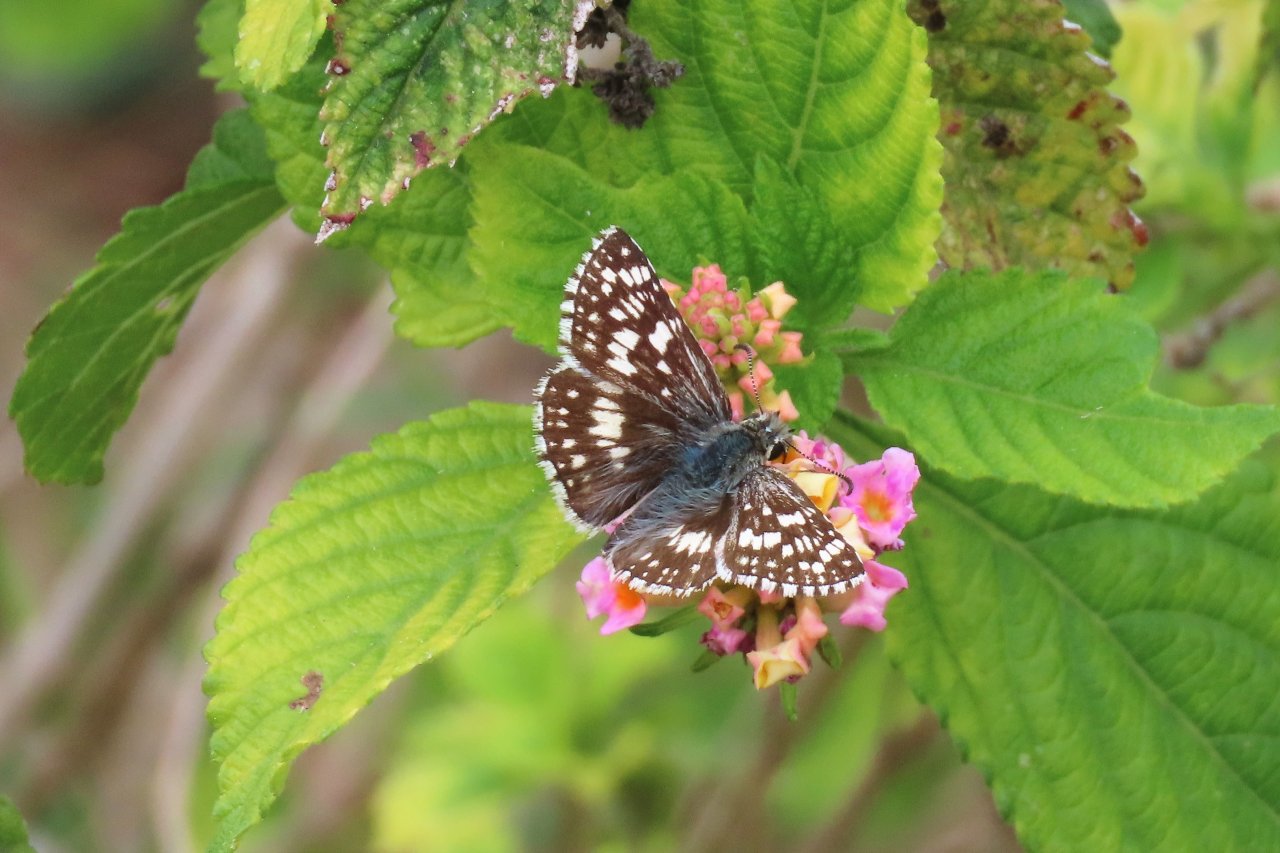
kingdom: Animalia
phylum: Arthropoda
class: Insecta
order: Lepidoptera
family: Hesperiidae
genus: Pyrgus
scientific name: Pyrgus communis
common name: White Checkered-Skipper
